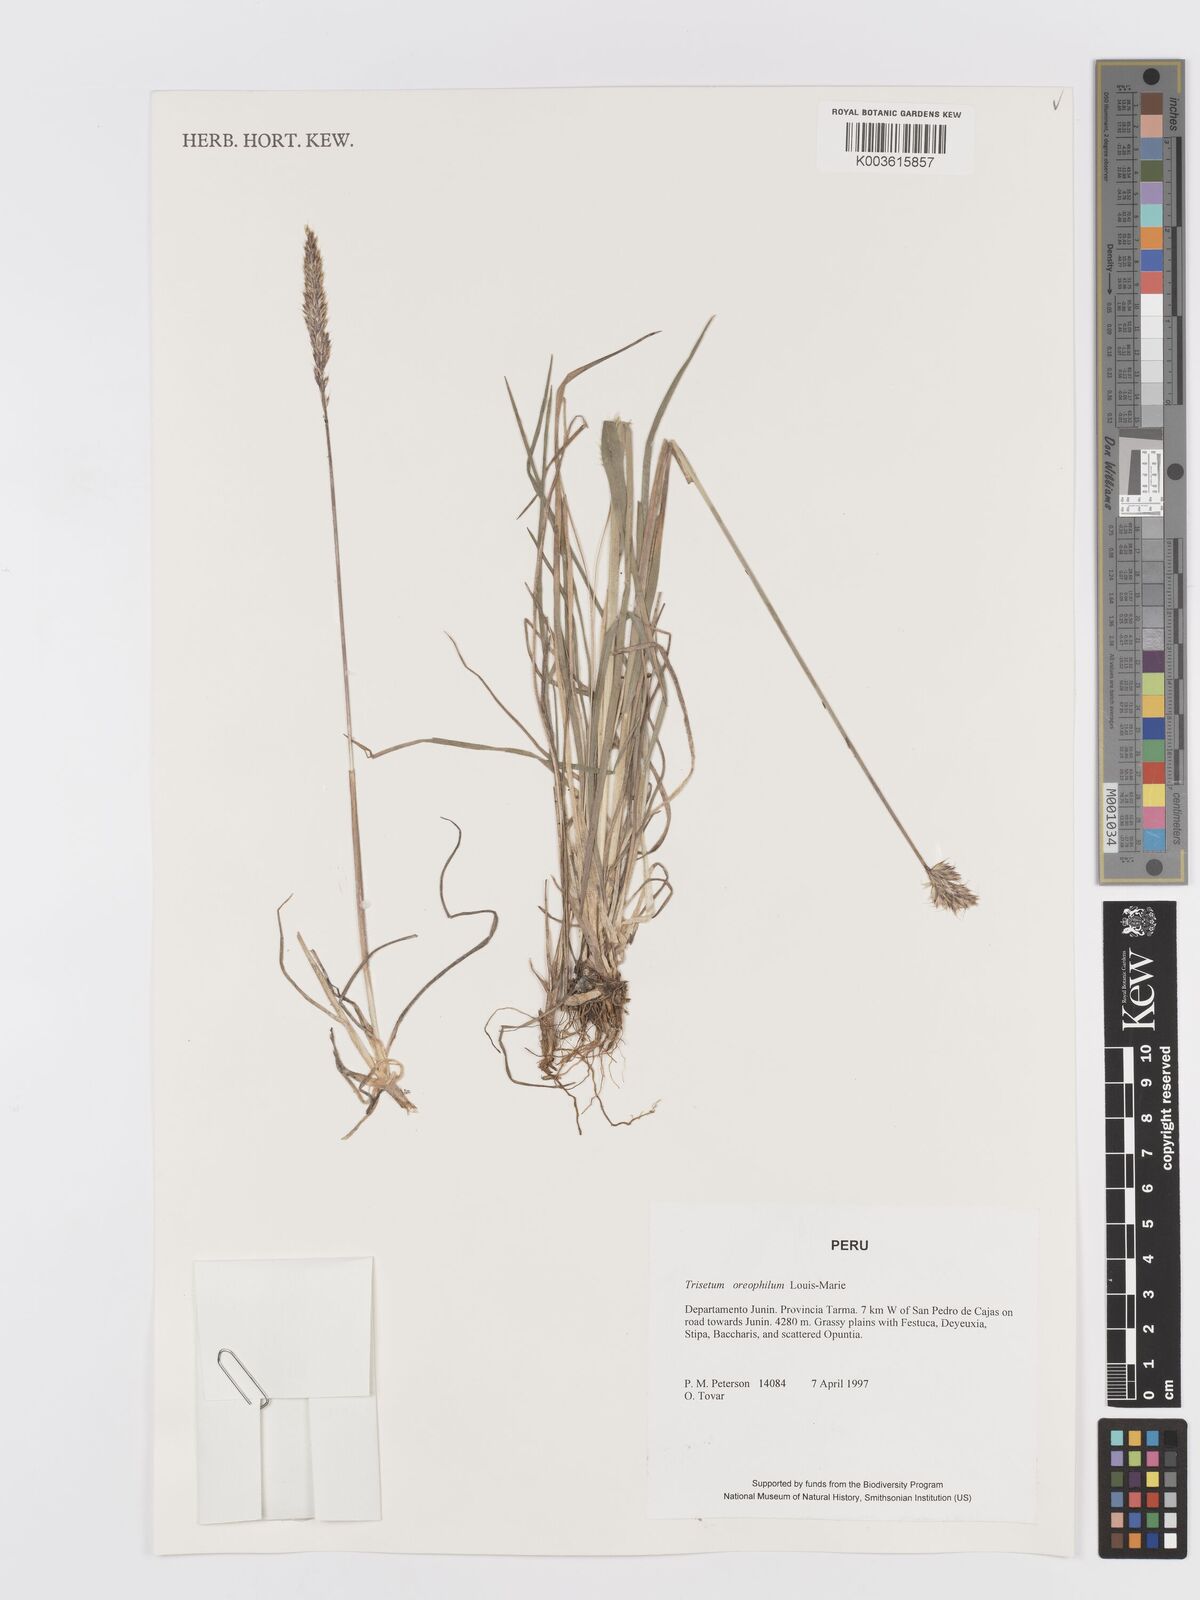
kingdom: Plantae
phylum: Tracheophyta
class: Liliopsida
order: Poales
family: Poaceae
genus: Koeleria
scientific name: Koeleria oreophila
